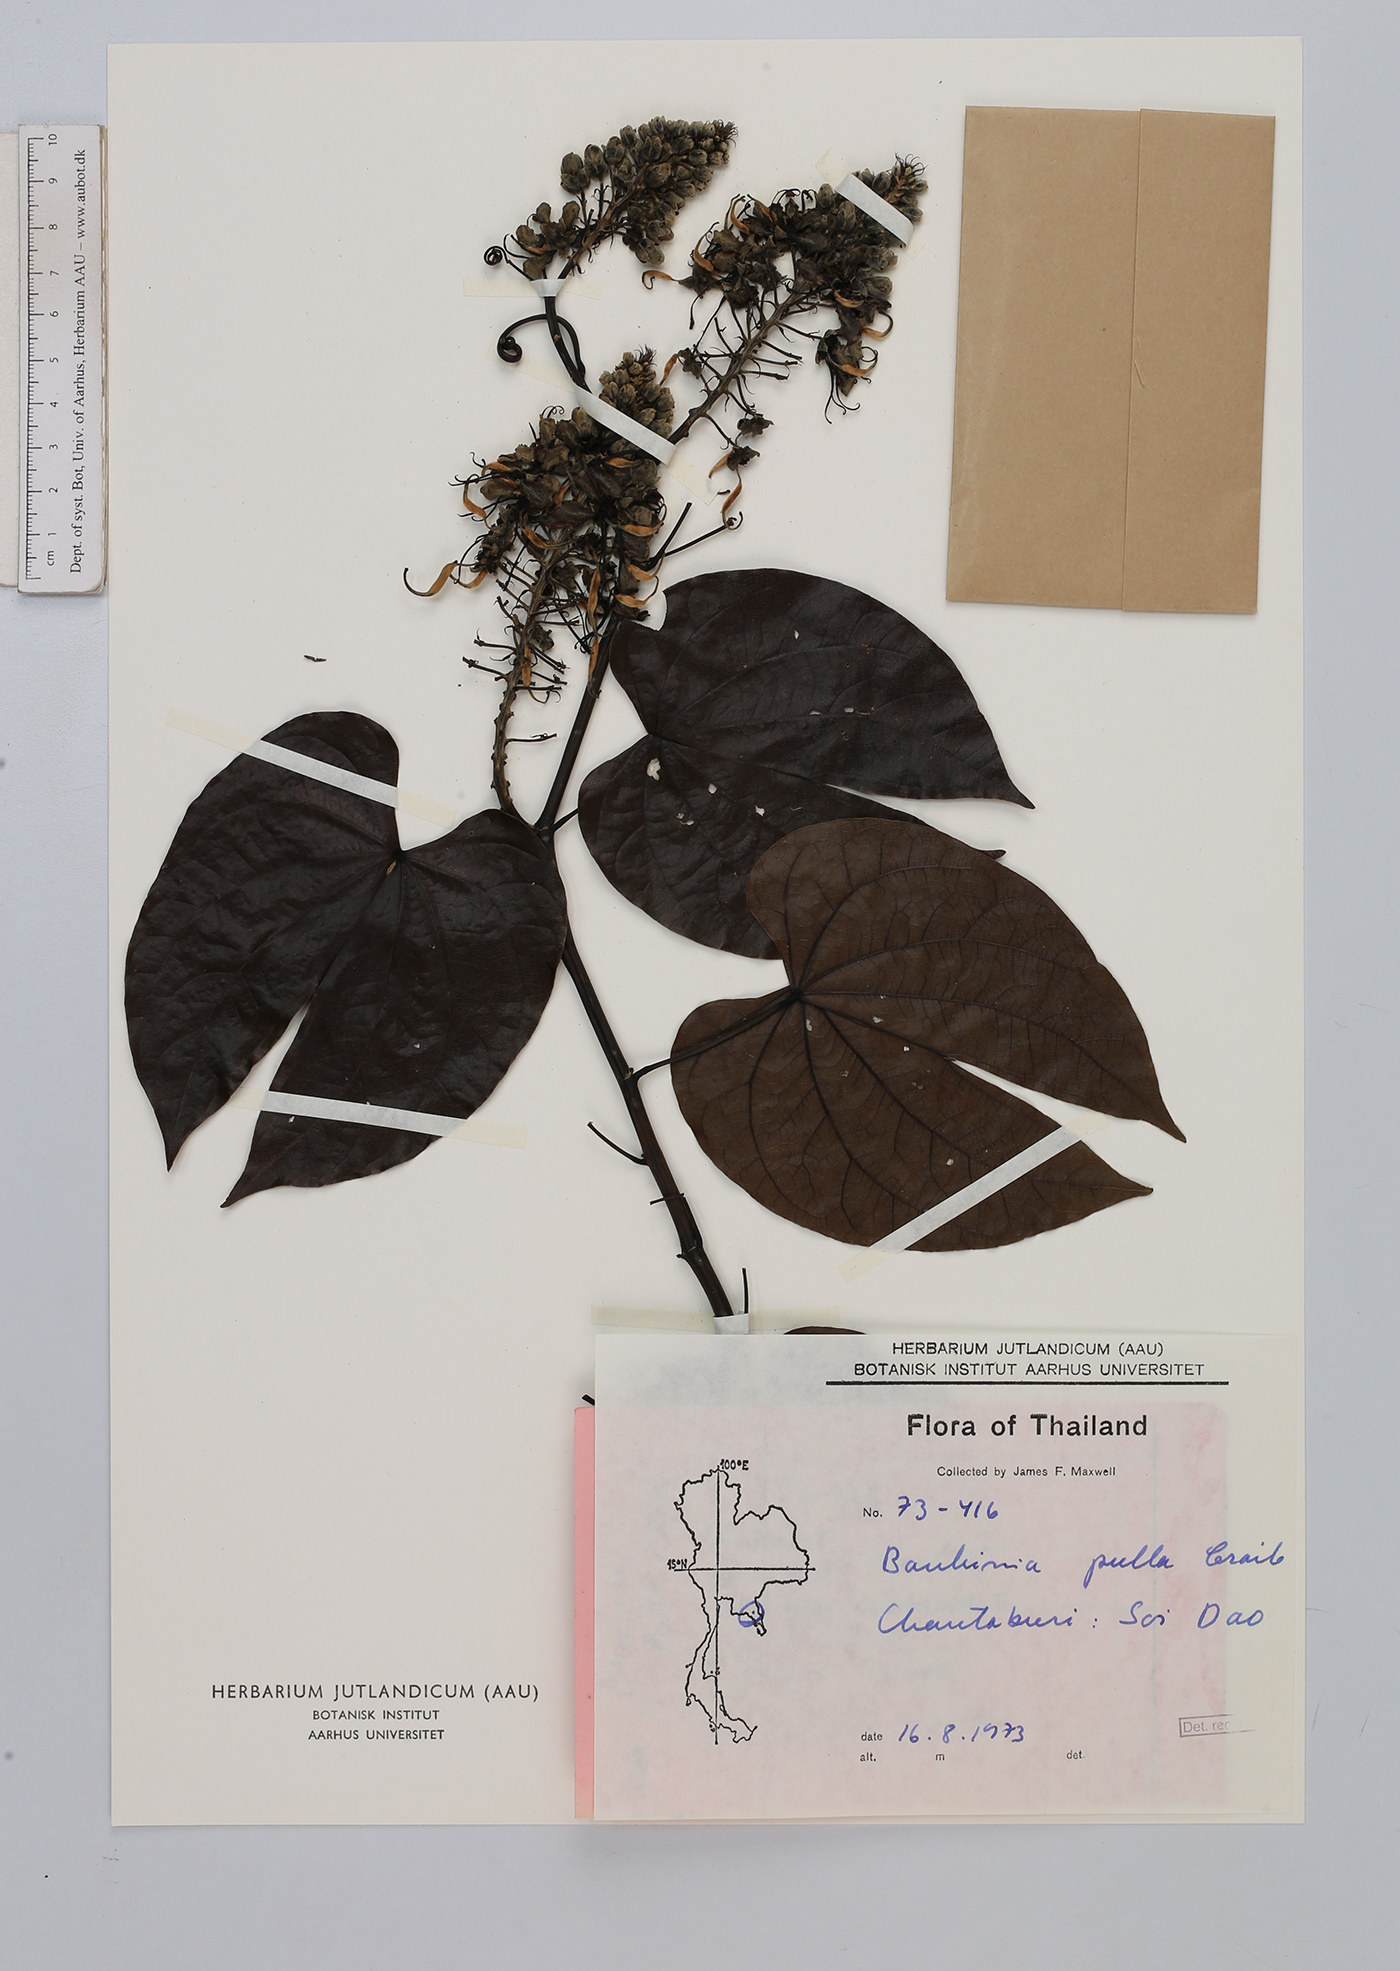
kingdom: Plantae
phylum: Tracheophyta
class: Magnoliopsida
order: Fabales
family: Fabaceae
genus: Phanera
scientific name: Phanera pulla
